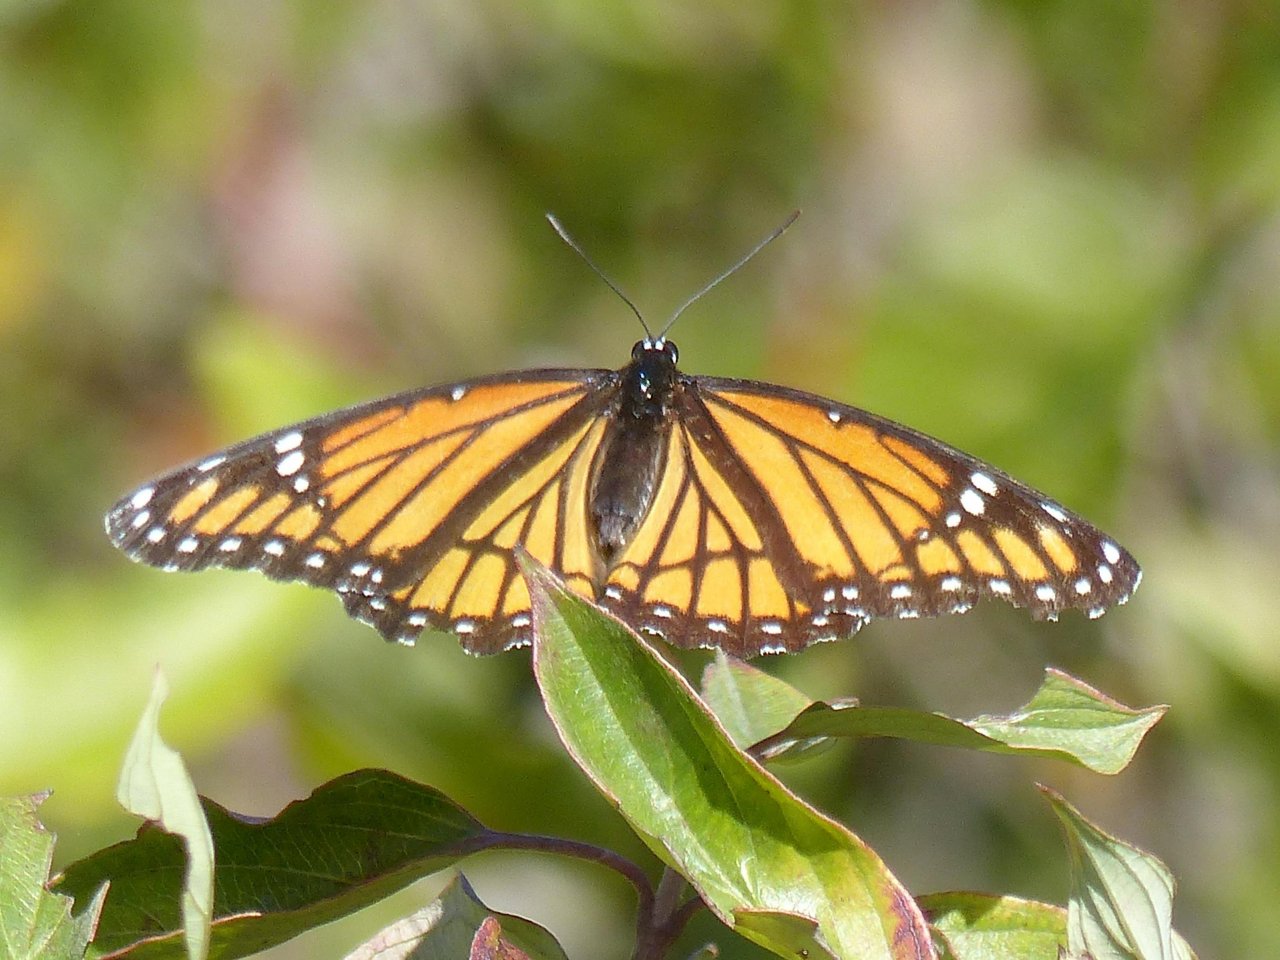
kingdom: Animalia
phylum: Arthropoda
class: Insecta
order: Lepidoptera
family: Nymphalidae
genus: Limenitis
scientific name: Limenitis archippus
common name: Viceroy
